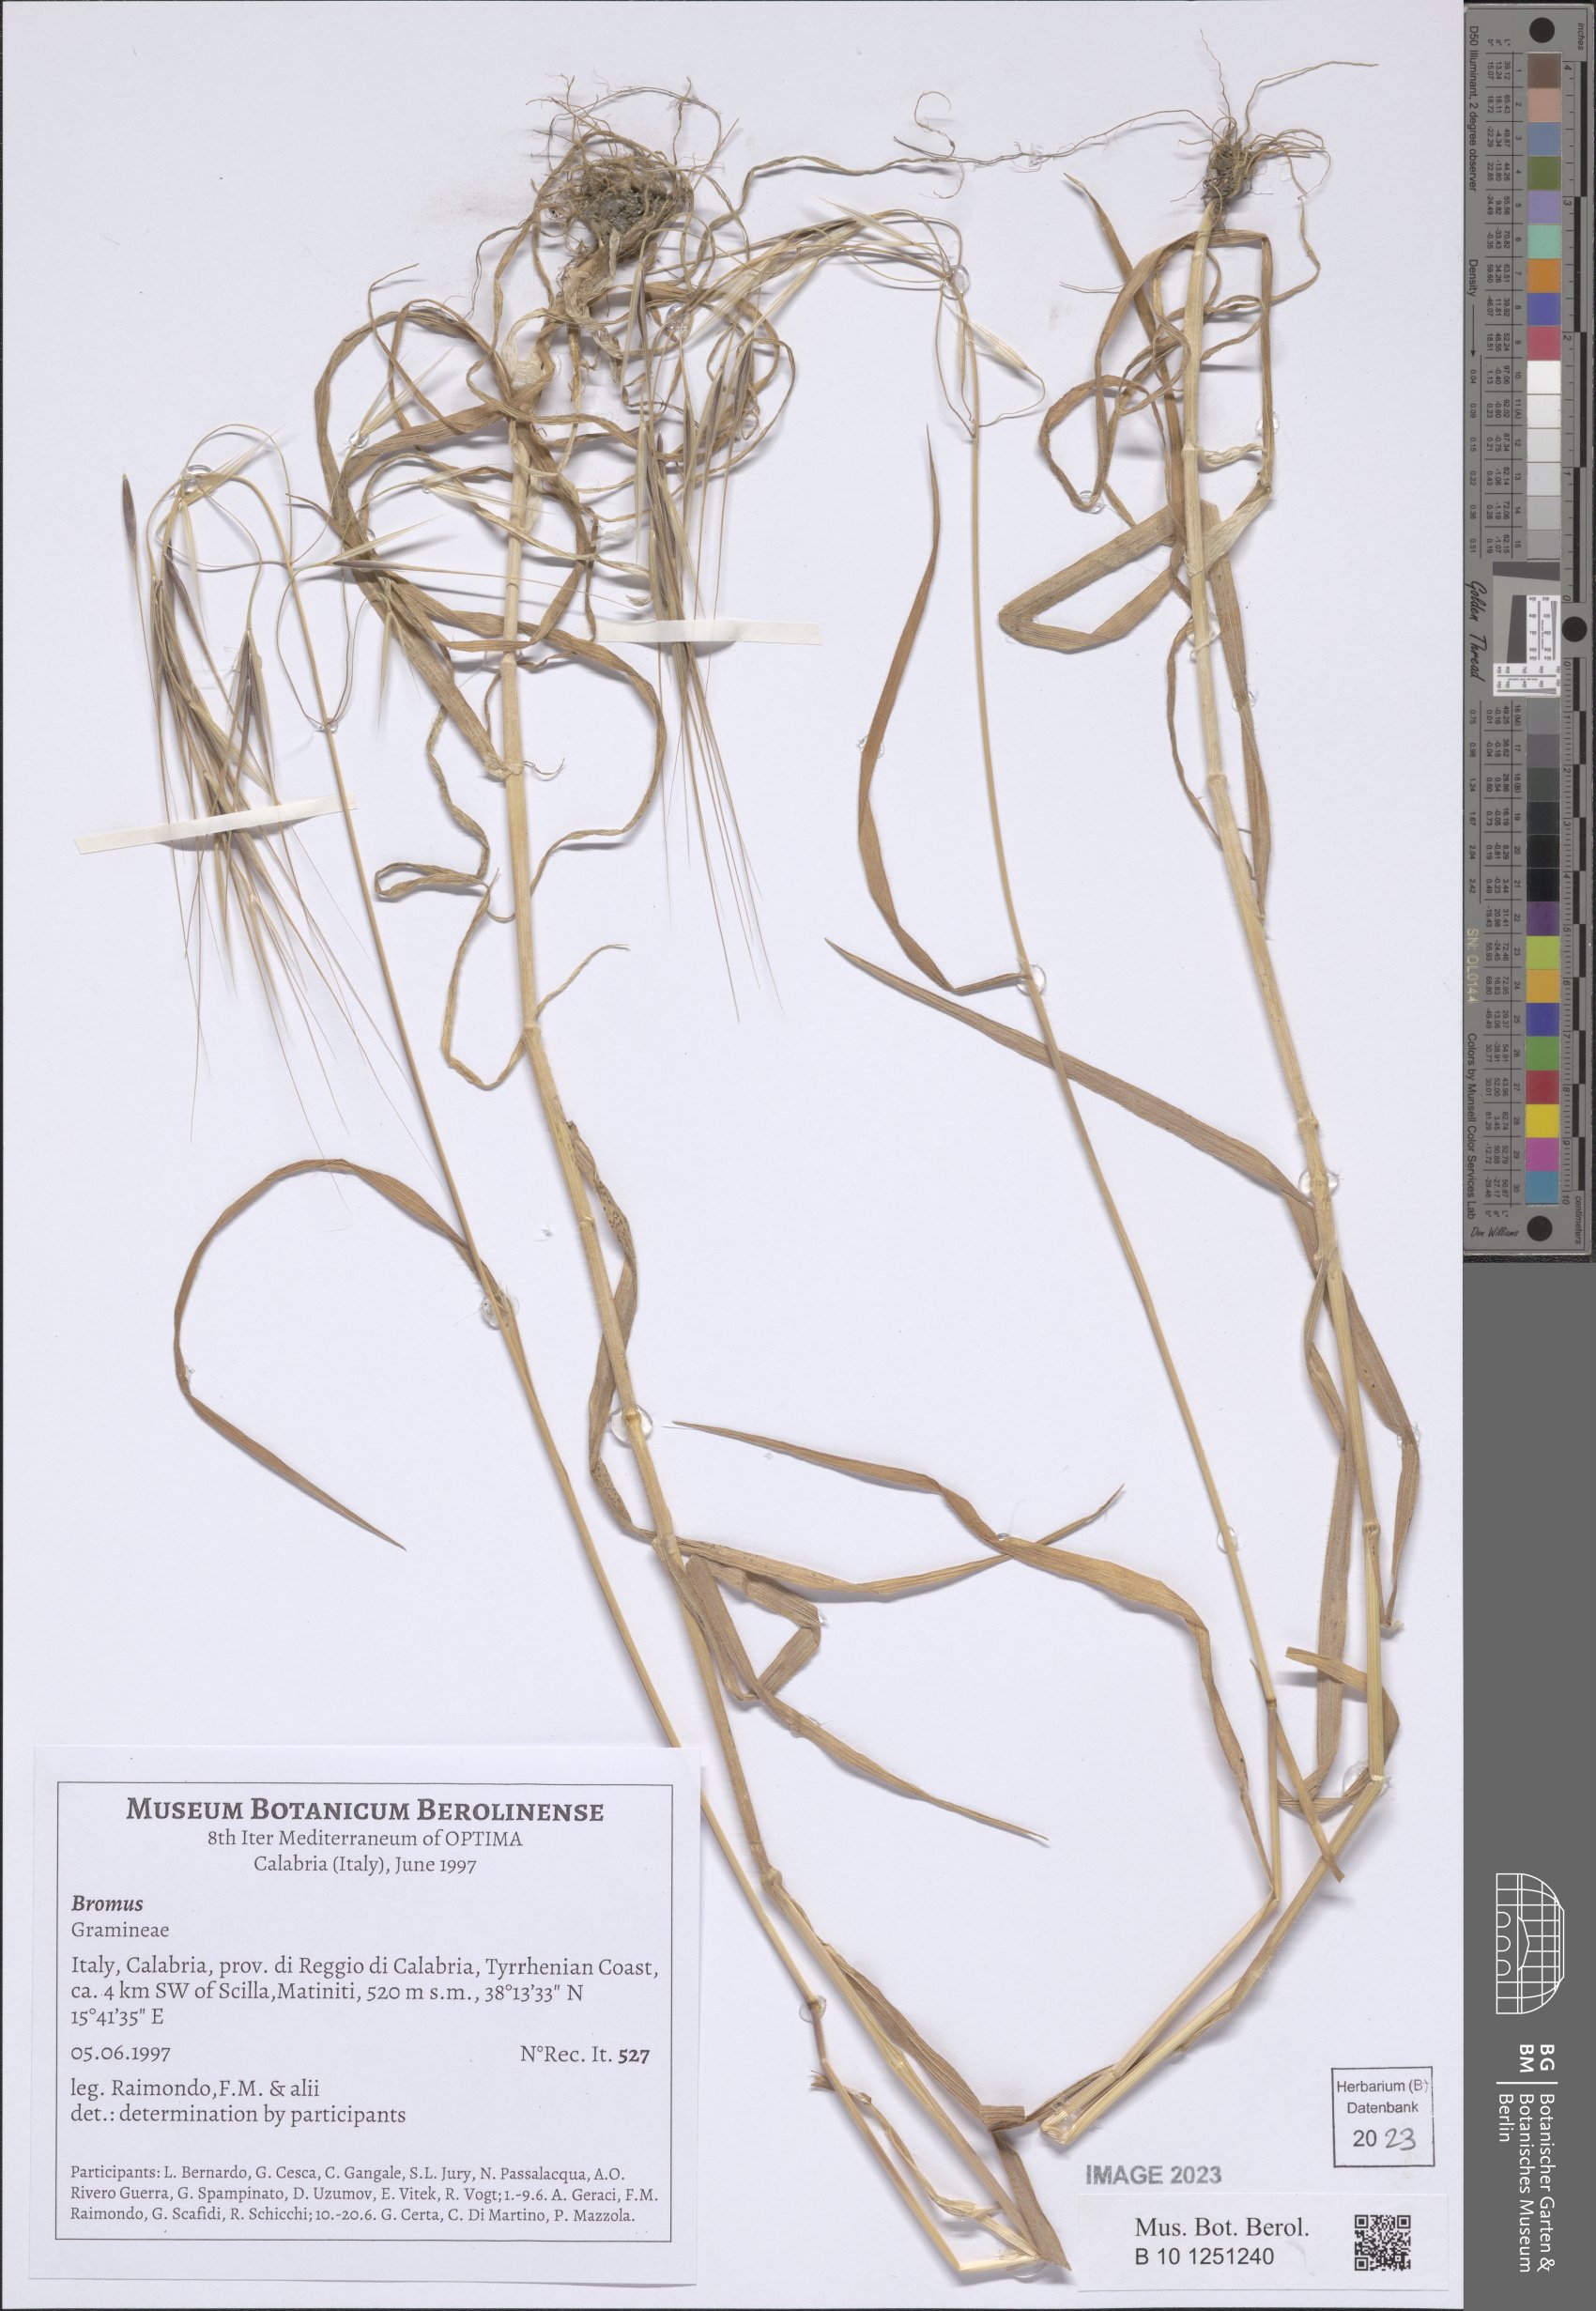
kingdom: Plantae
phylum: Tracheophyta
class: Liliopsida
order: Poales
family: Poaceae
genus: Bromus
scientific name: Bromus
